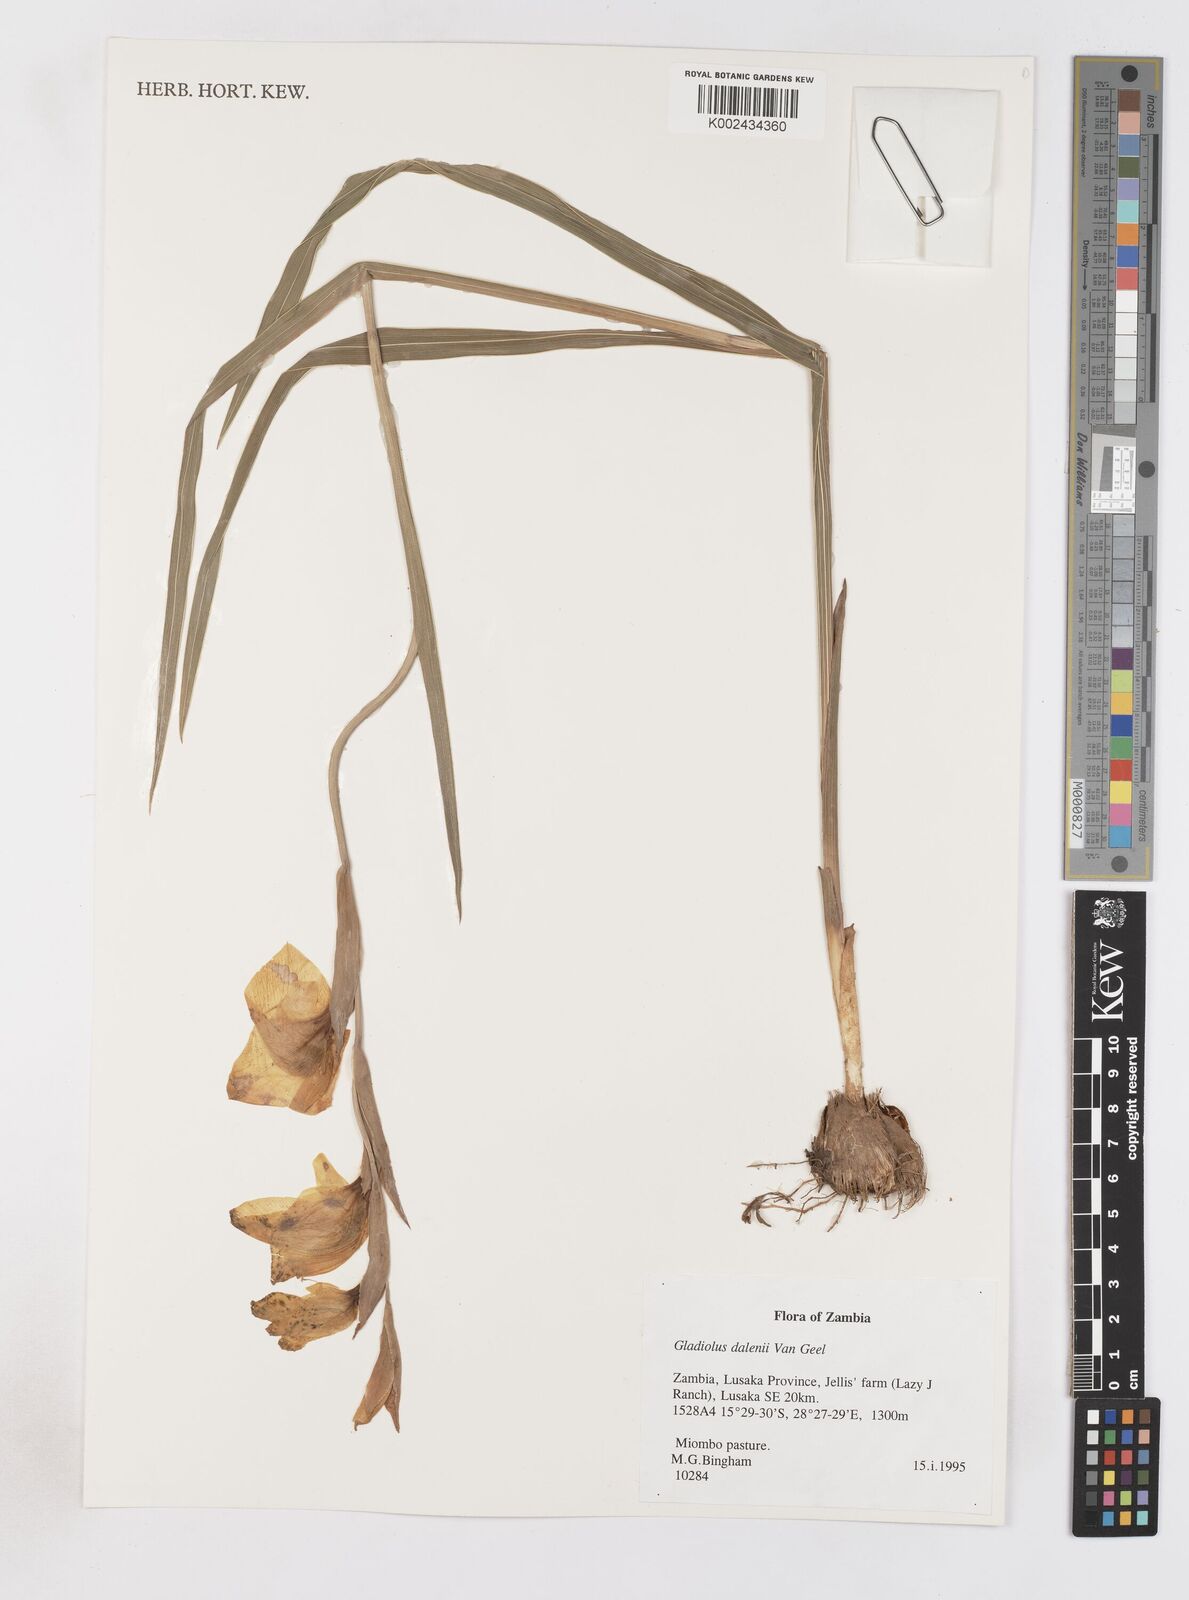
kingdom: Plantae
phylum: Tracheophyta
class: Liliopsida
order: Asparagales
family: Iridaceae
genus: Gladiolus
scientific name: Gladiolus dalenii
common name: Cornflag
